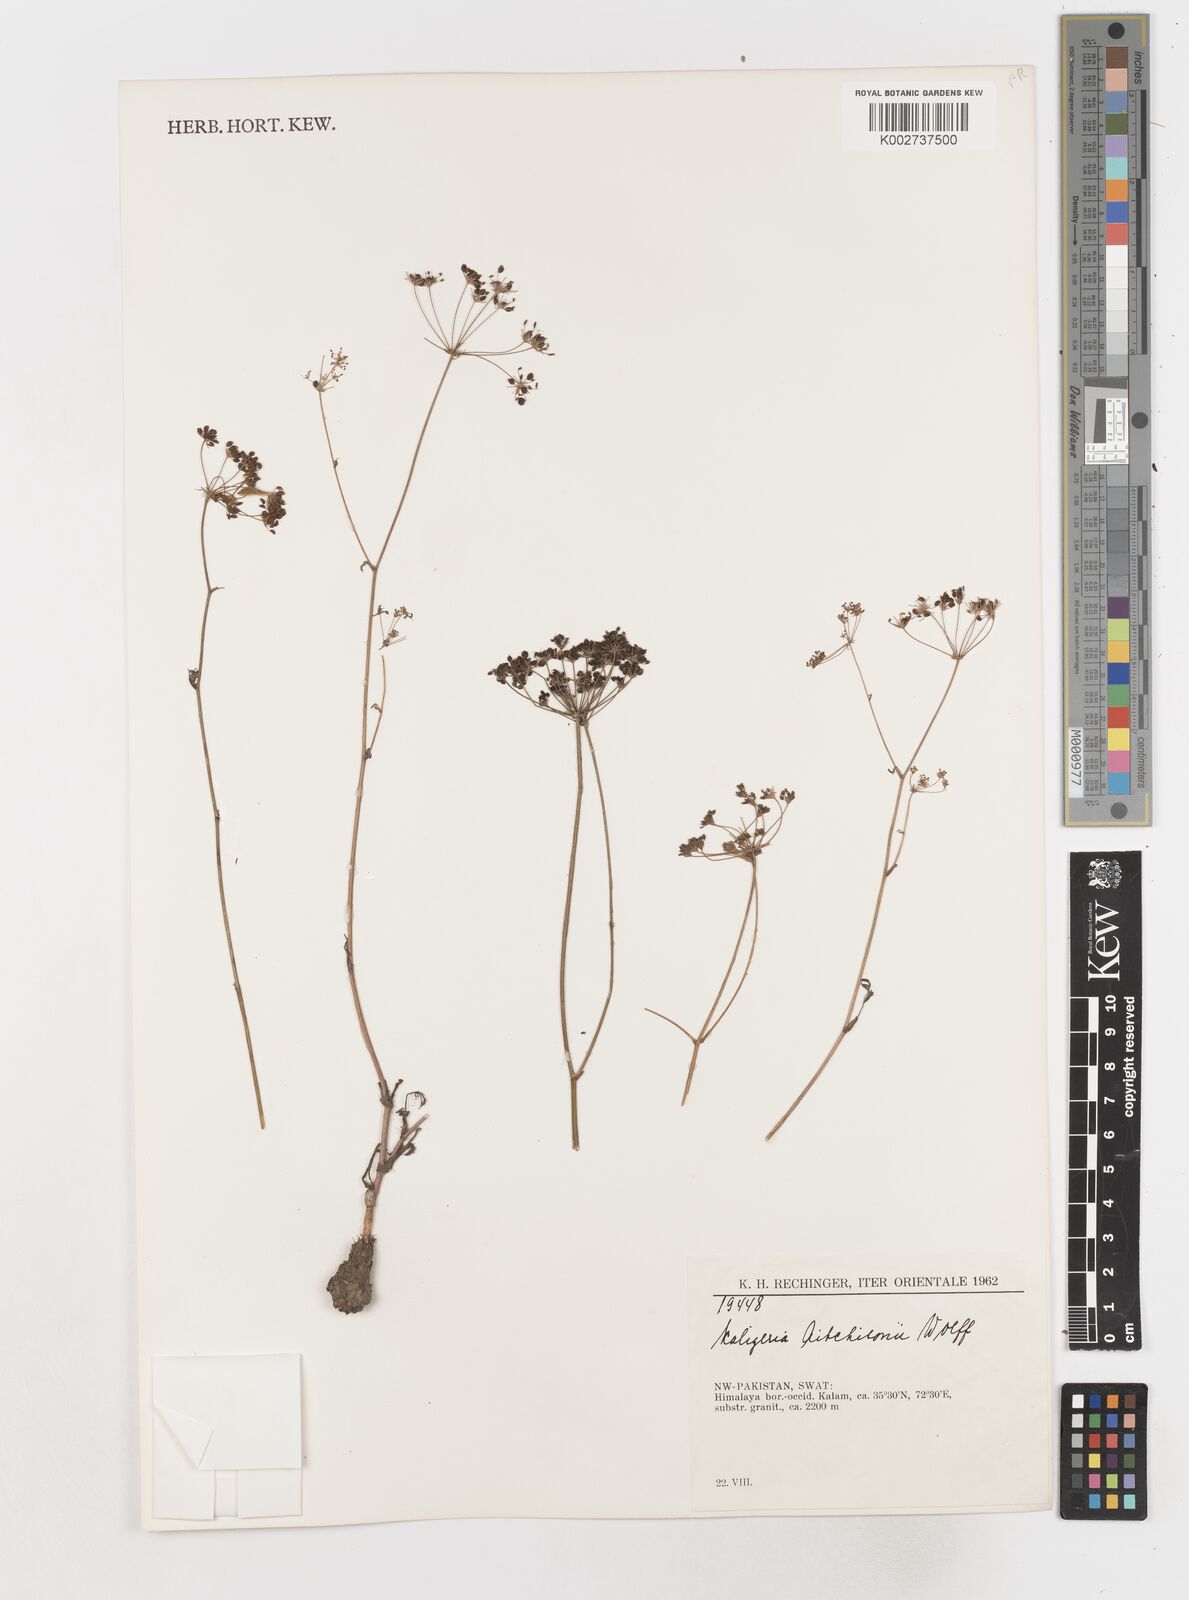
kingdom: Plantae
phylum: Tracheophyta
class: Magnoliopsida
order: Apiales
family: Apiaceae
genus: Scaligeria
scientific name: Scaligeria hirtula
